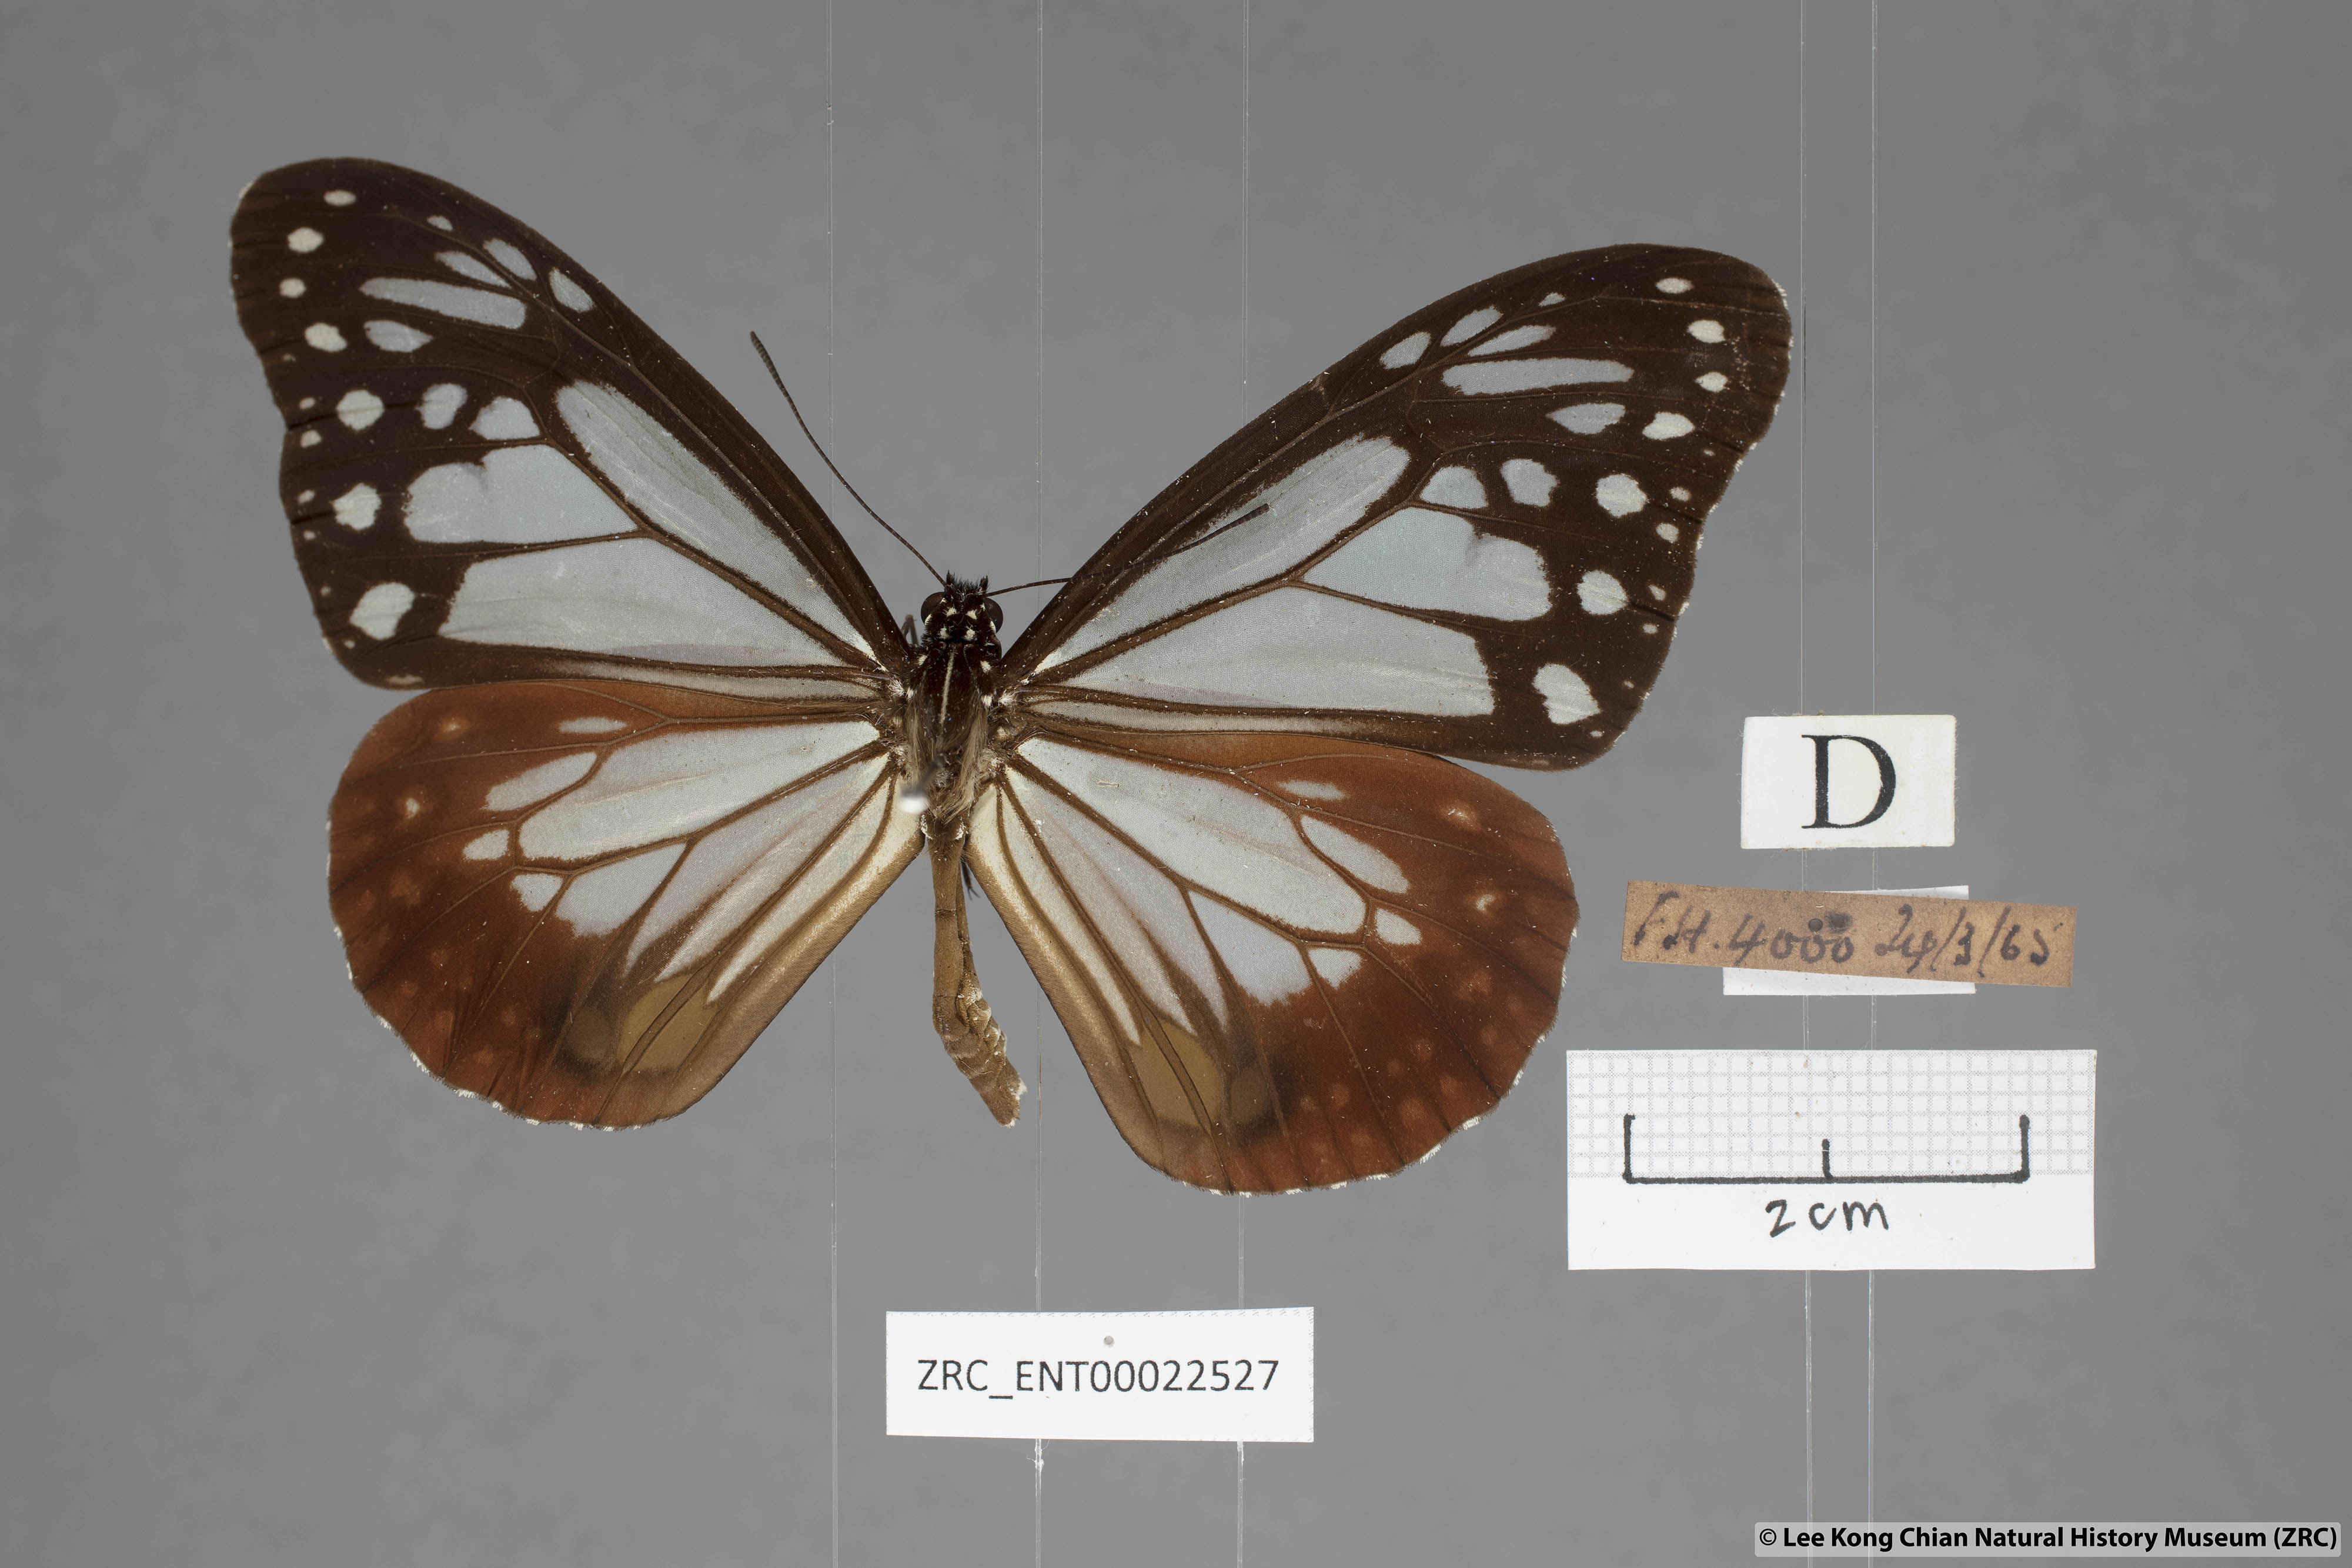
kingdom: Animalia
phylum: Arthropoda
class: Insecta
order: Lepidoptera
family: Nymphalidae
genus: Parantica
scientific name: Parantica sita
